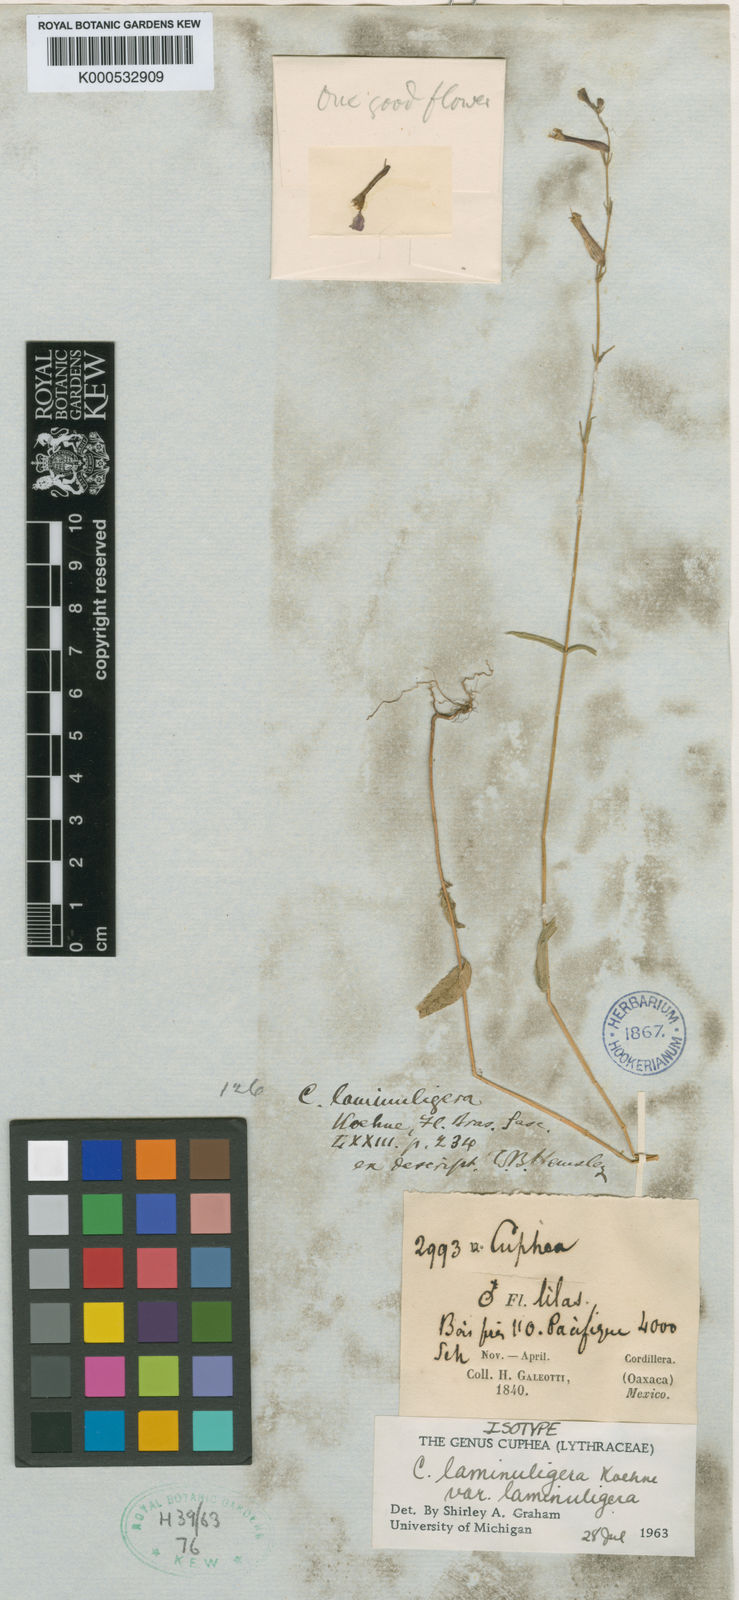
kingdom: Plantae
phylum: Tracheophyta
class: Magnoliopsida
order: Myrtales
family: Lythraceae
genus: Cuphea
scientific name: Cuphea laminuligera
